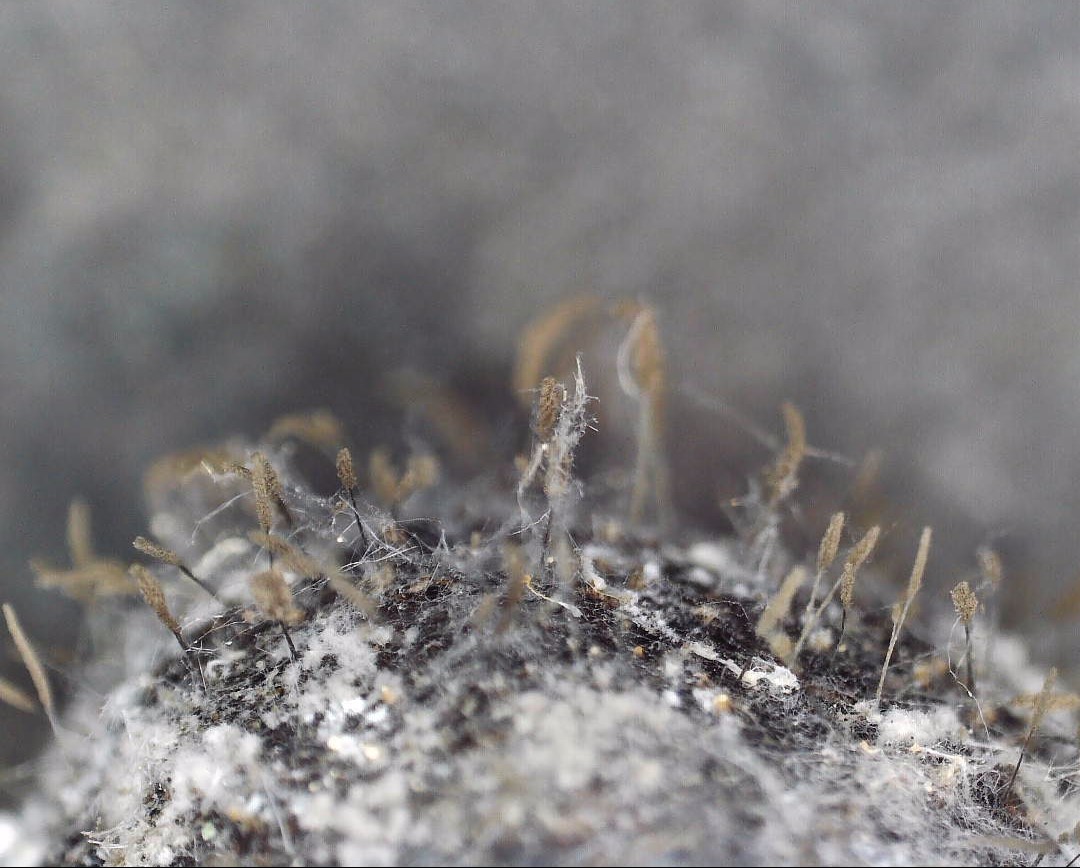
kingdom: Fungi
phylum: Ascomycota
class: Sordariomycetes
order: Microascales
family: Microascaceae
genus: Cephalotrichum
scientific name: Cephalotrichum stemonitis
